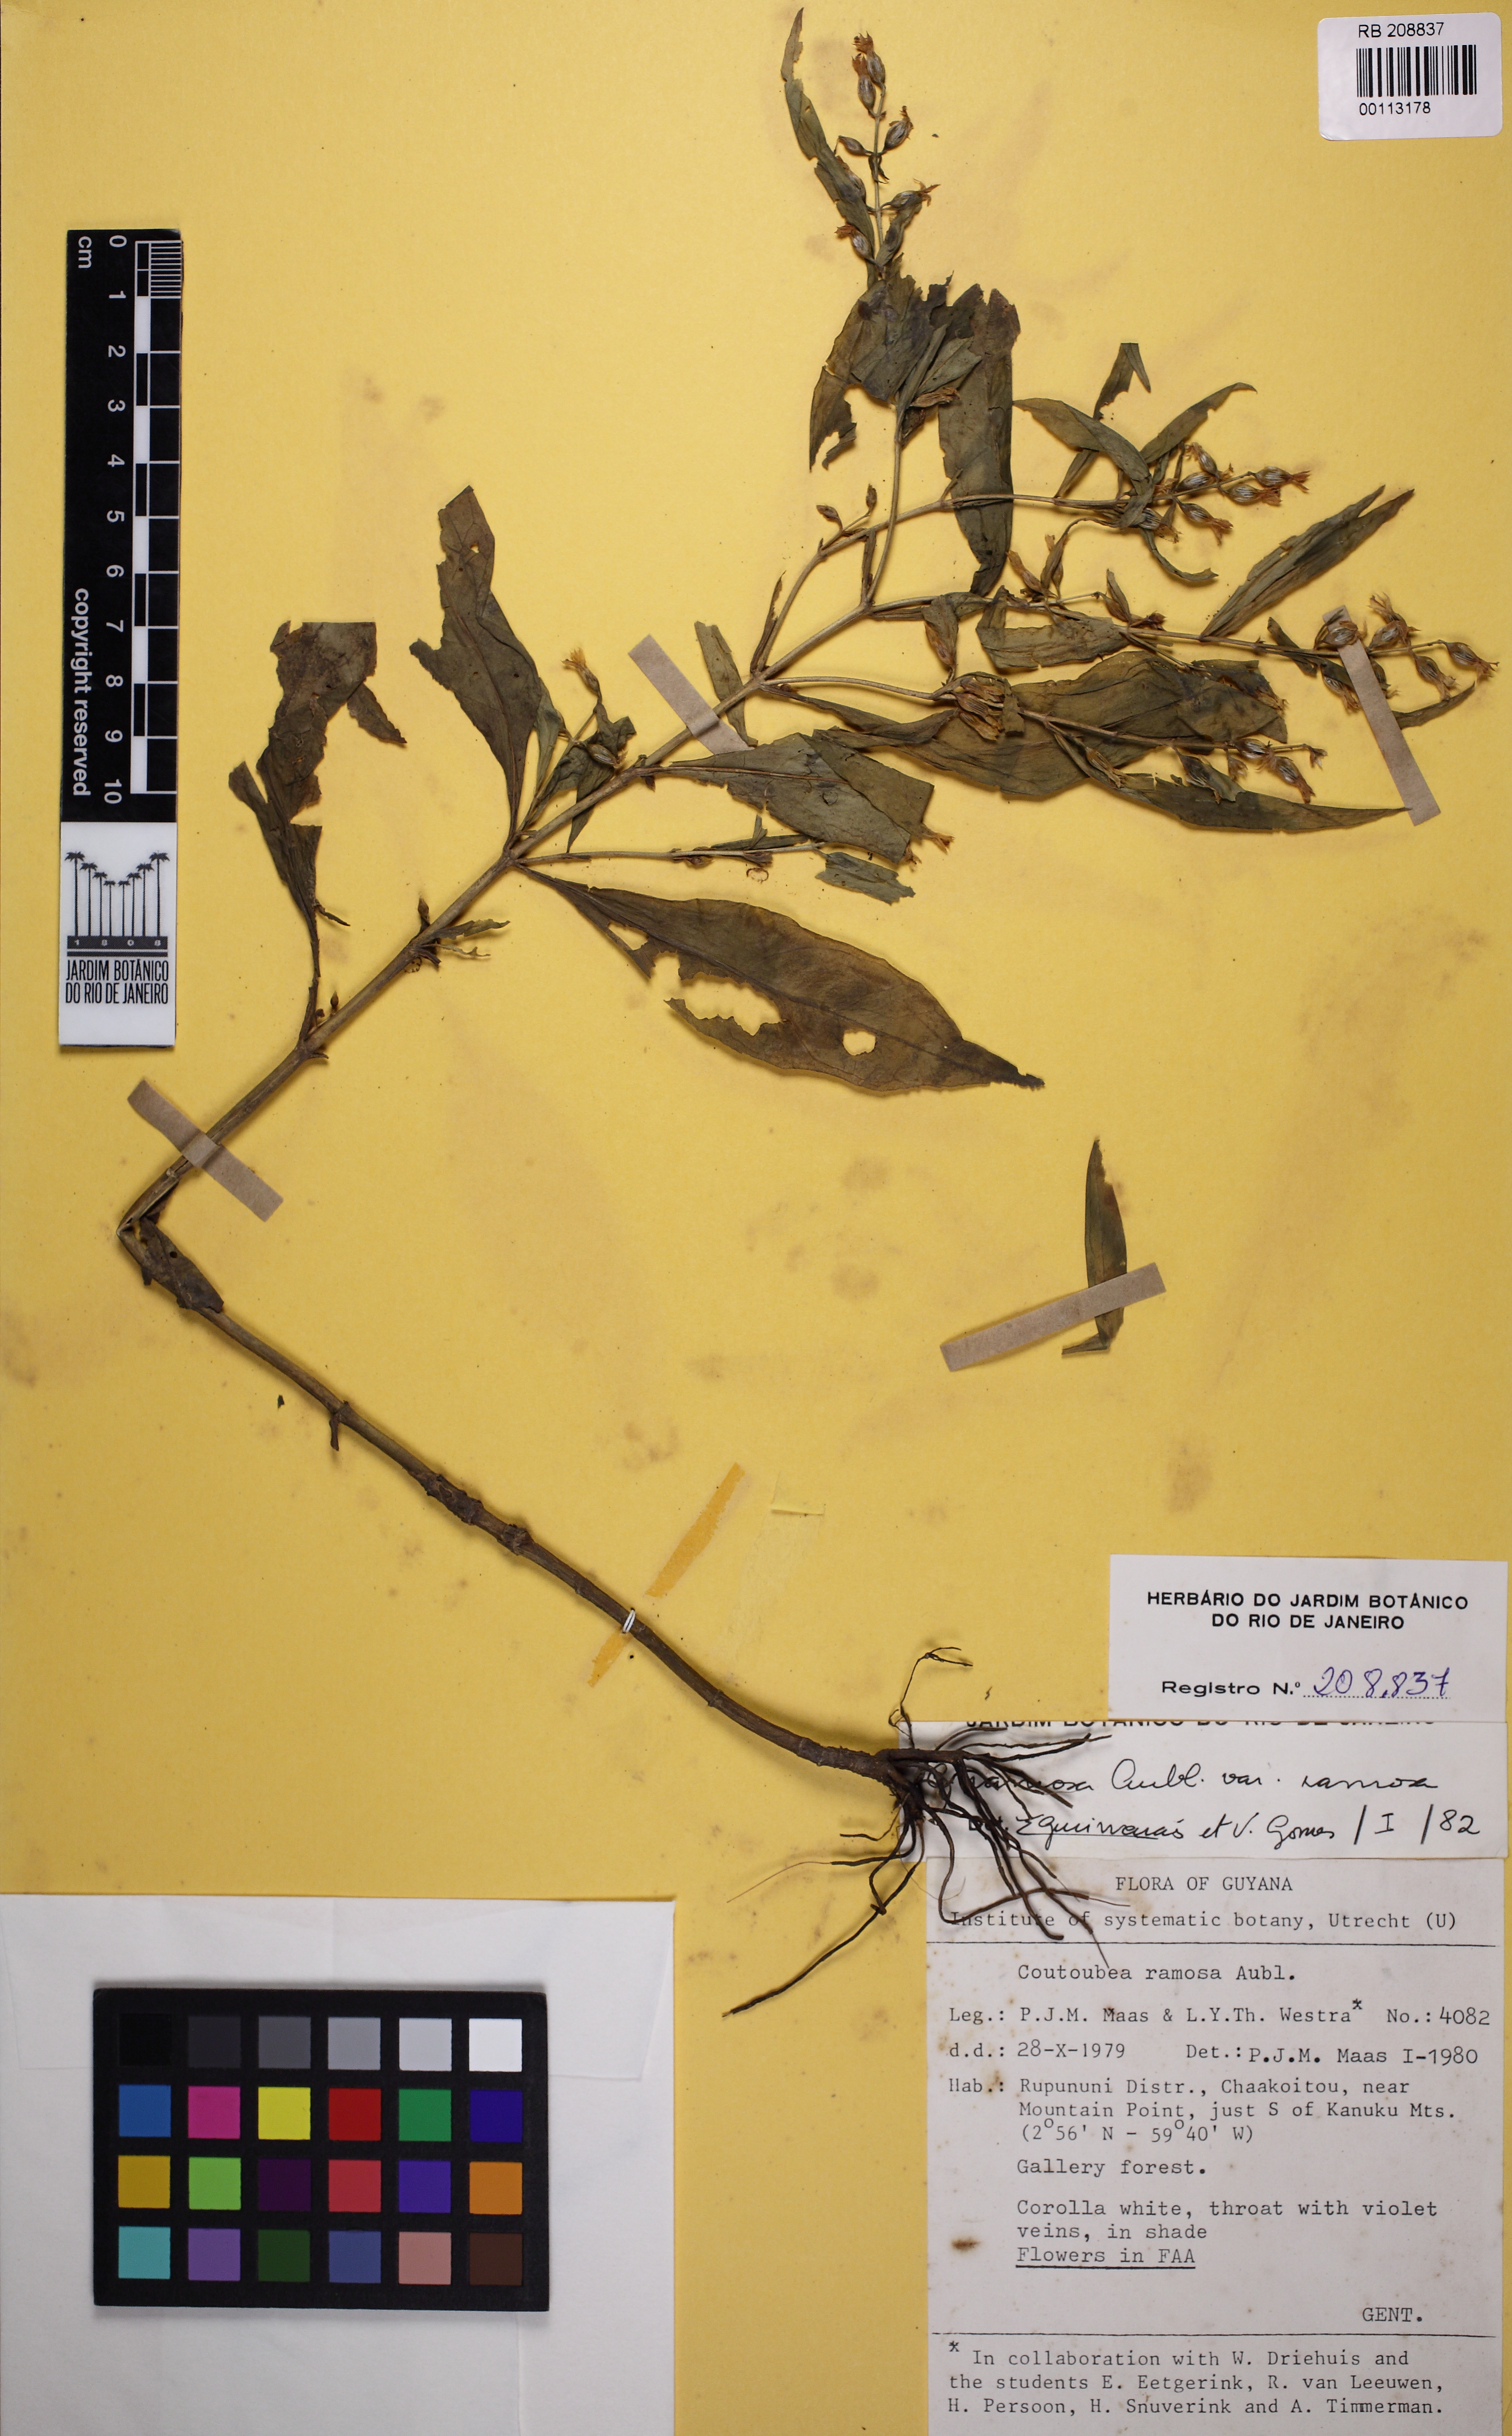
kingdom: Plantae
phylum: Tracheophyta
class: Magnoliopsida
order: Gentianales
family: Gentianaceae
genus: Coutoubea
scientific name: Coutoubea ramosa
